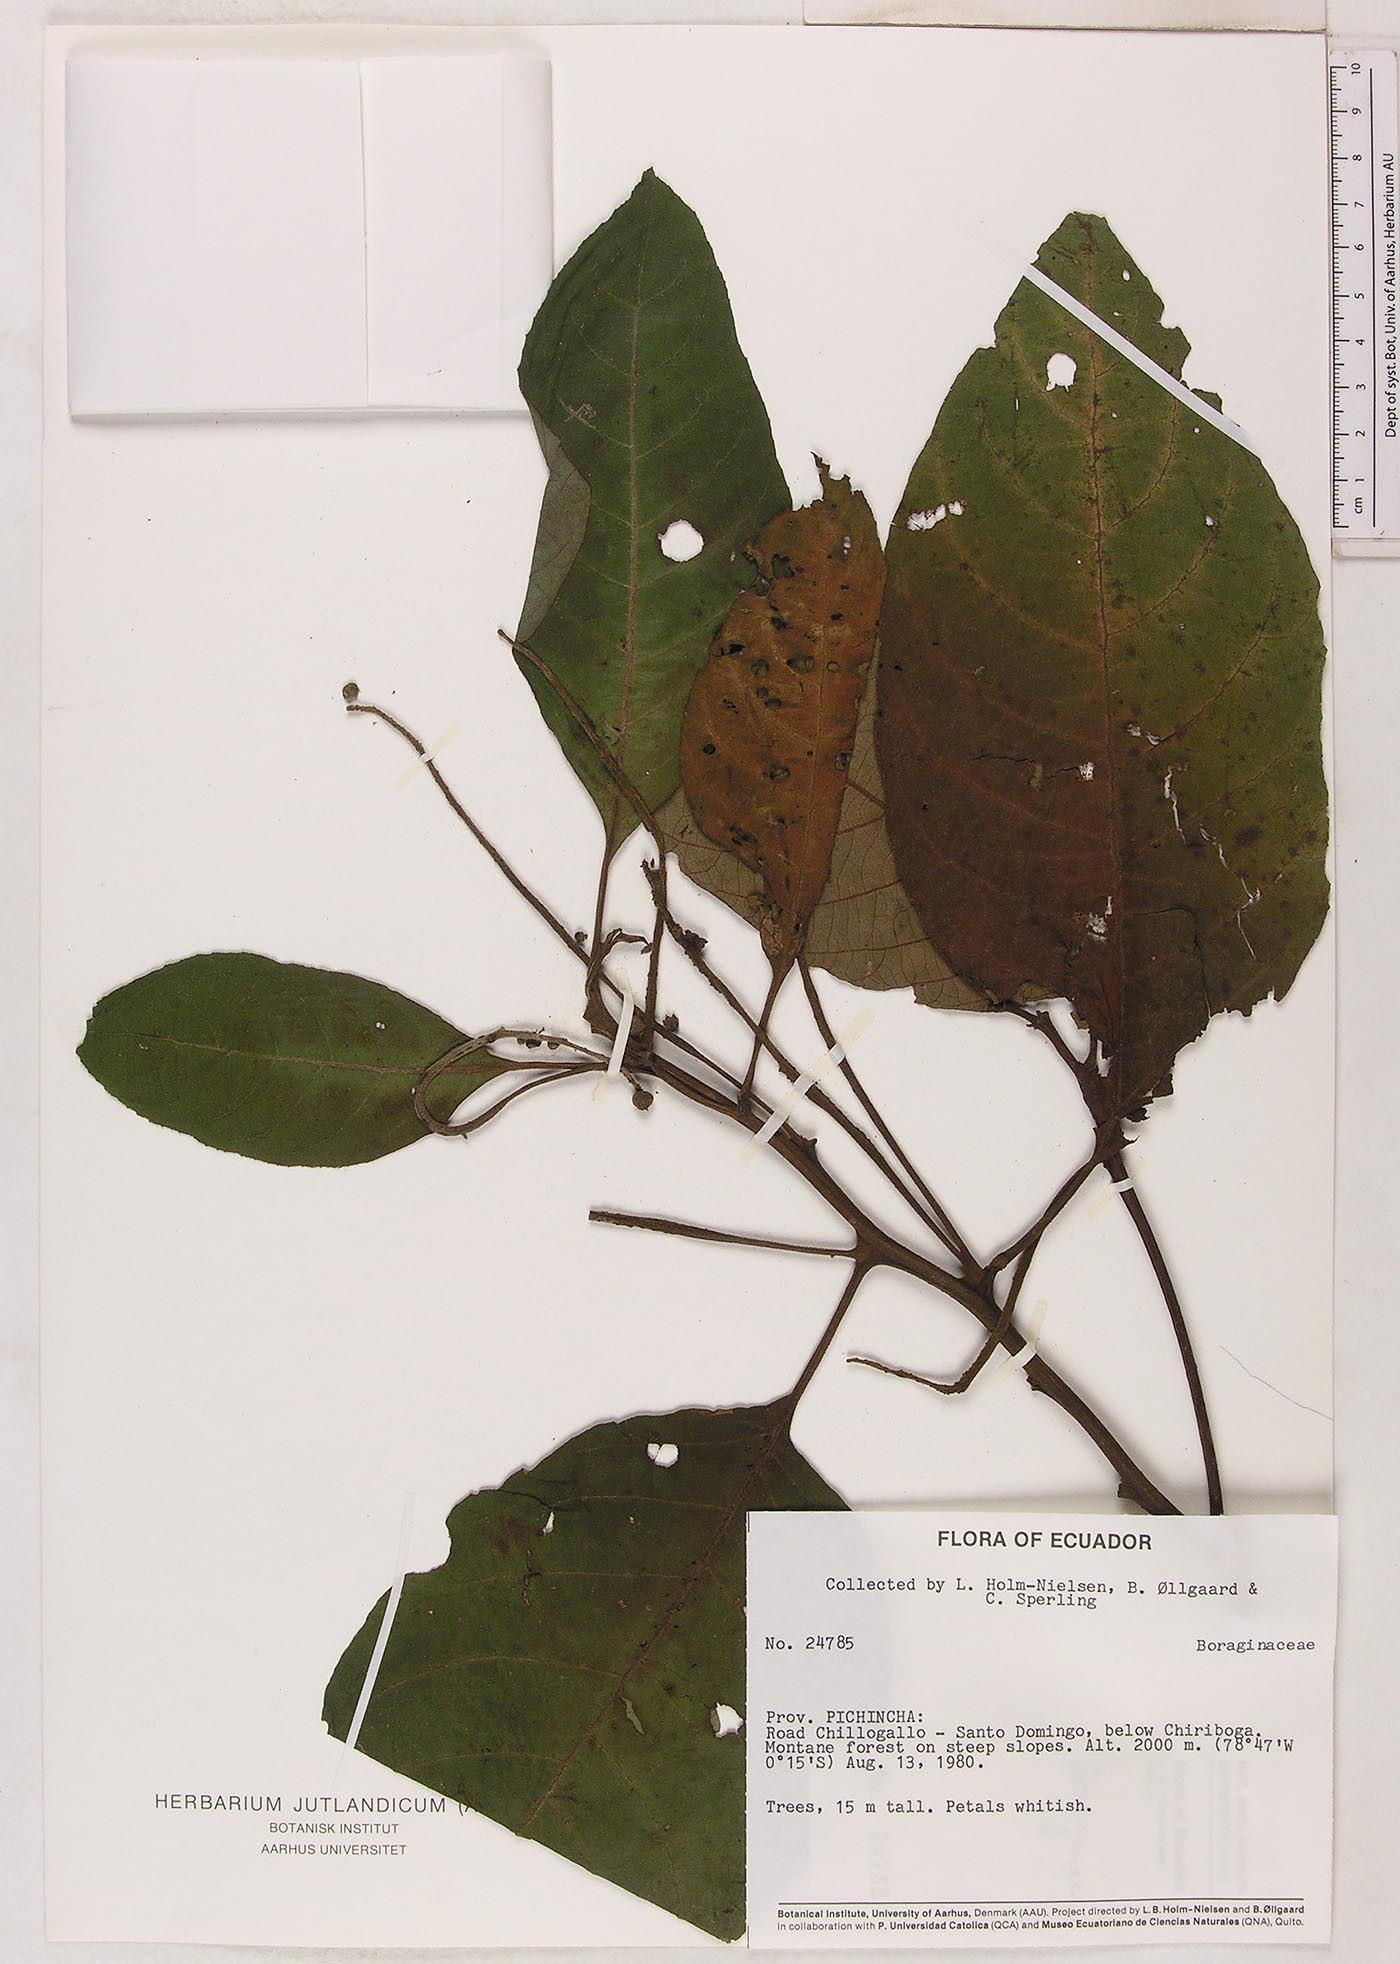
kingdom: Plantae
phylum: Tracheophyta
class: Magnoliopsida
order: Boraginales
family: Cordiaceae
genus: Varronia
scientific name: Varronia
